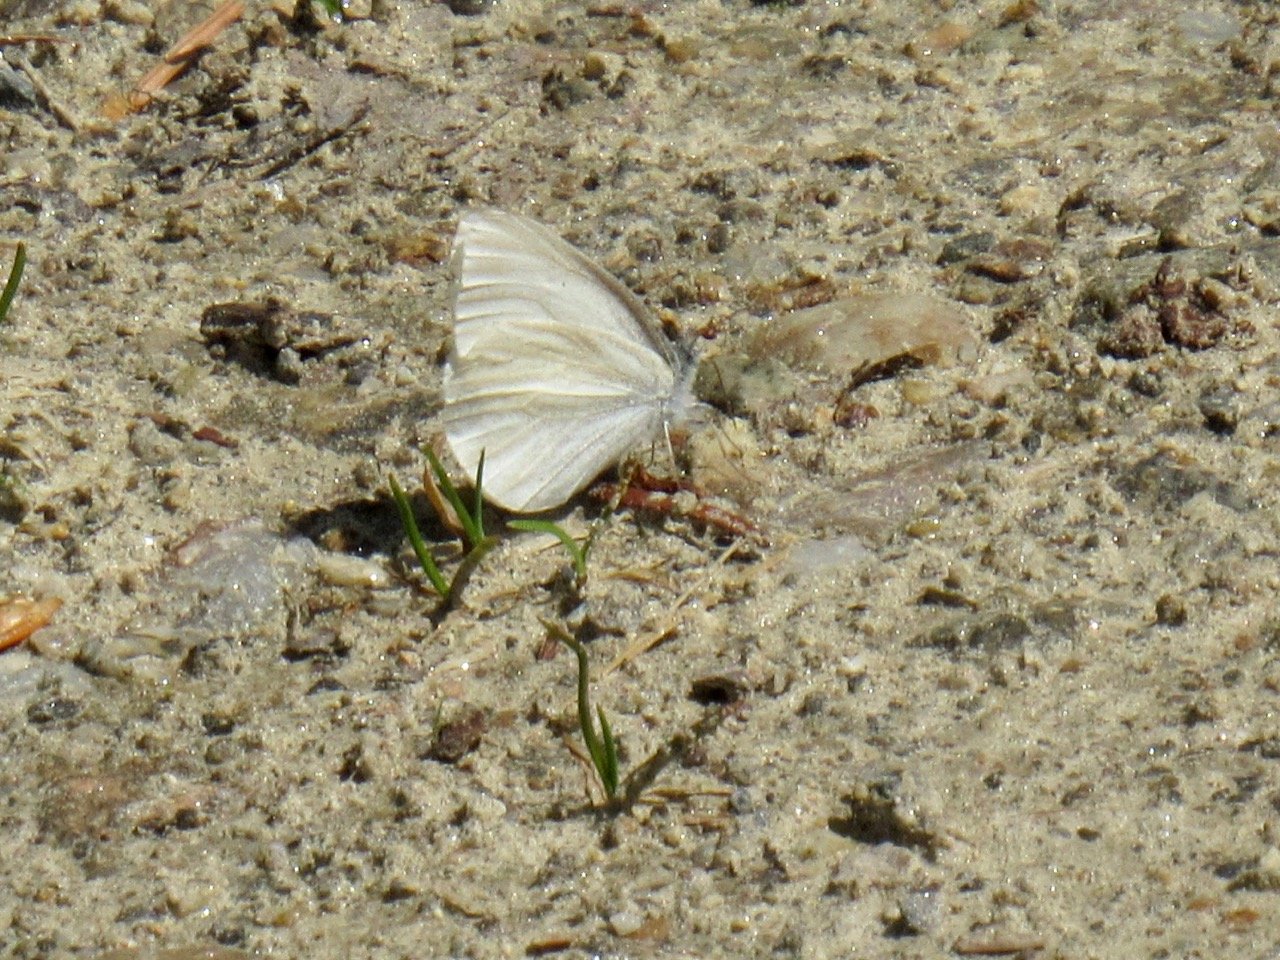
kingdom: Animalia
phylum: Arthropoda
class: Insecta
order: Lepidoptera
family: Pieridae
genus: Pieris
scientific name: Pieris virginiensis
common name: West Virginia White
